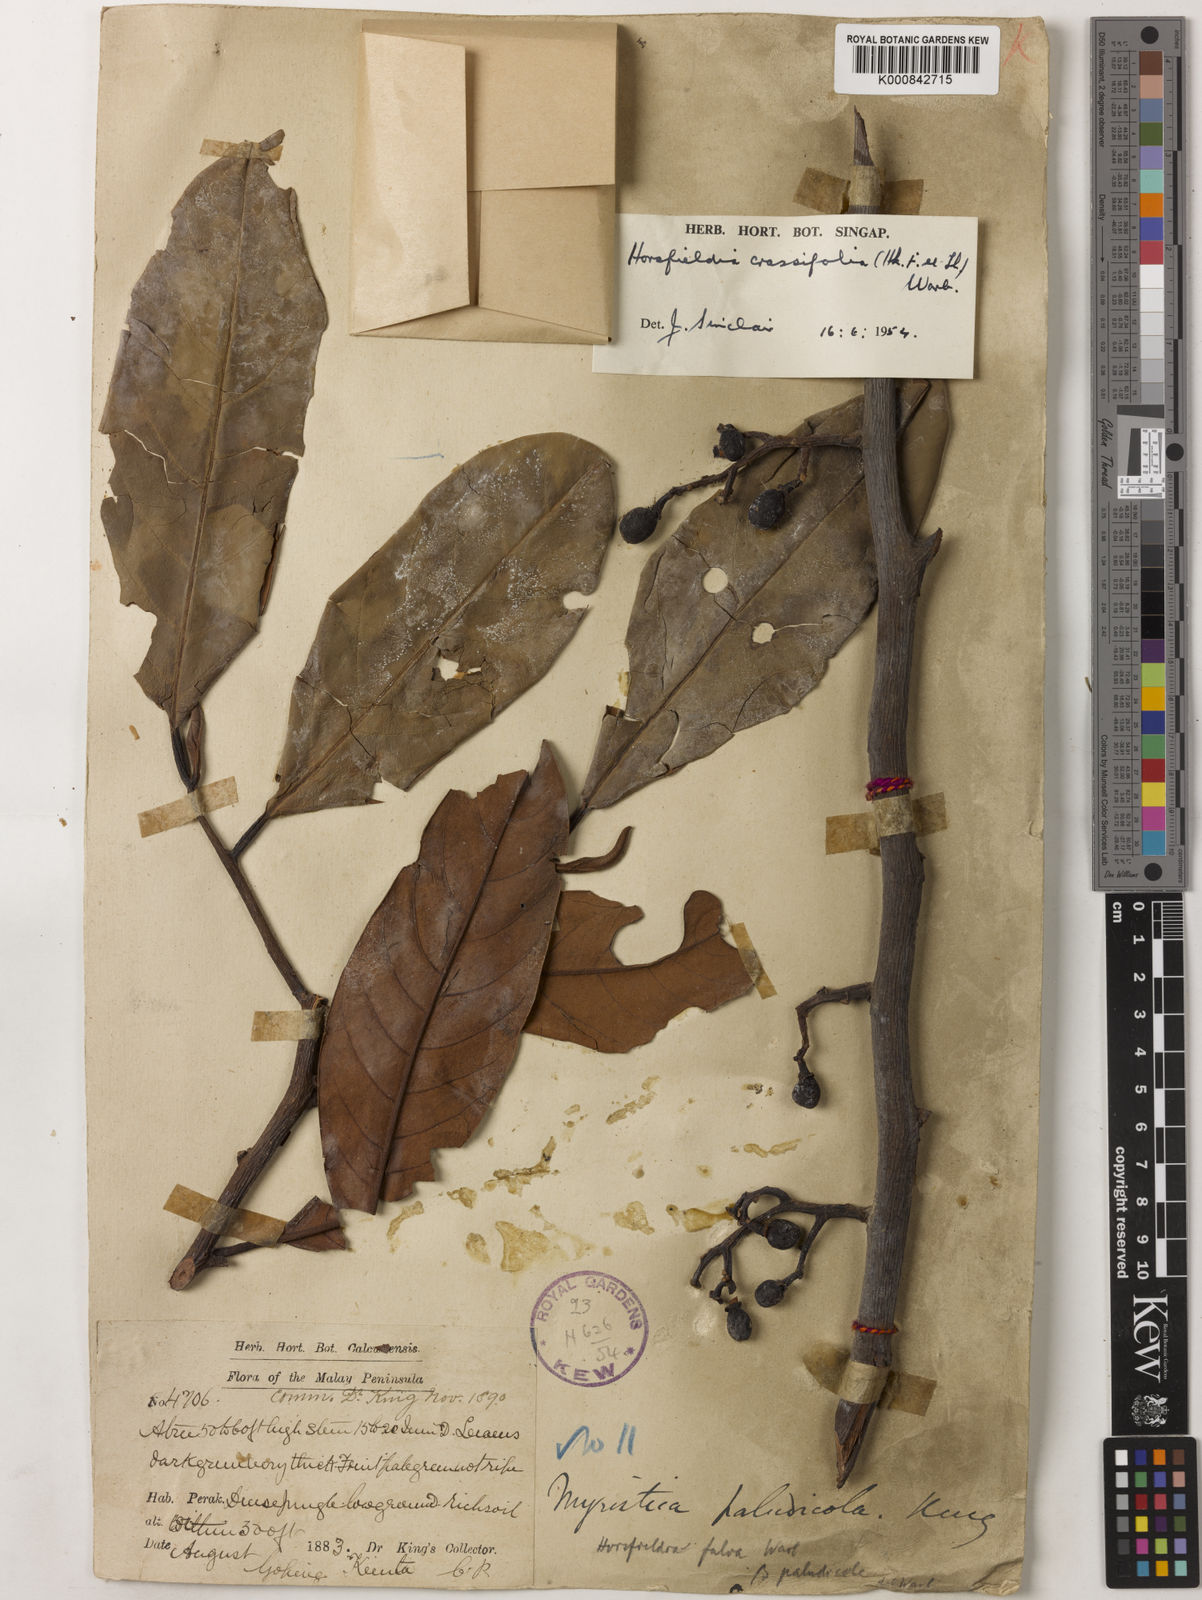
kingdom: Plantae
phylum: Tracheophyta
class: Magnoliopsida
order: Magnoliales
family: Myristicaceae
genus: Horsfieldia
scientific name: Horsfieldia crassifolia
